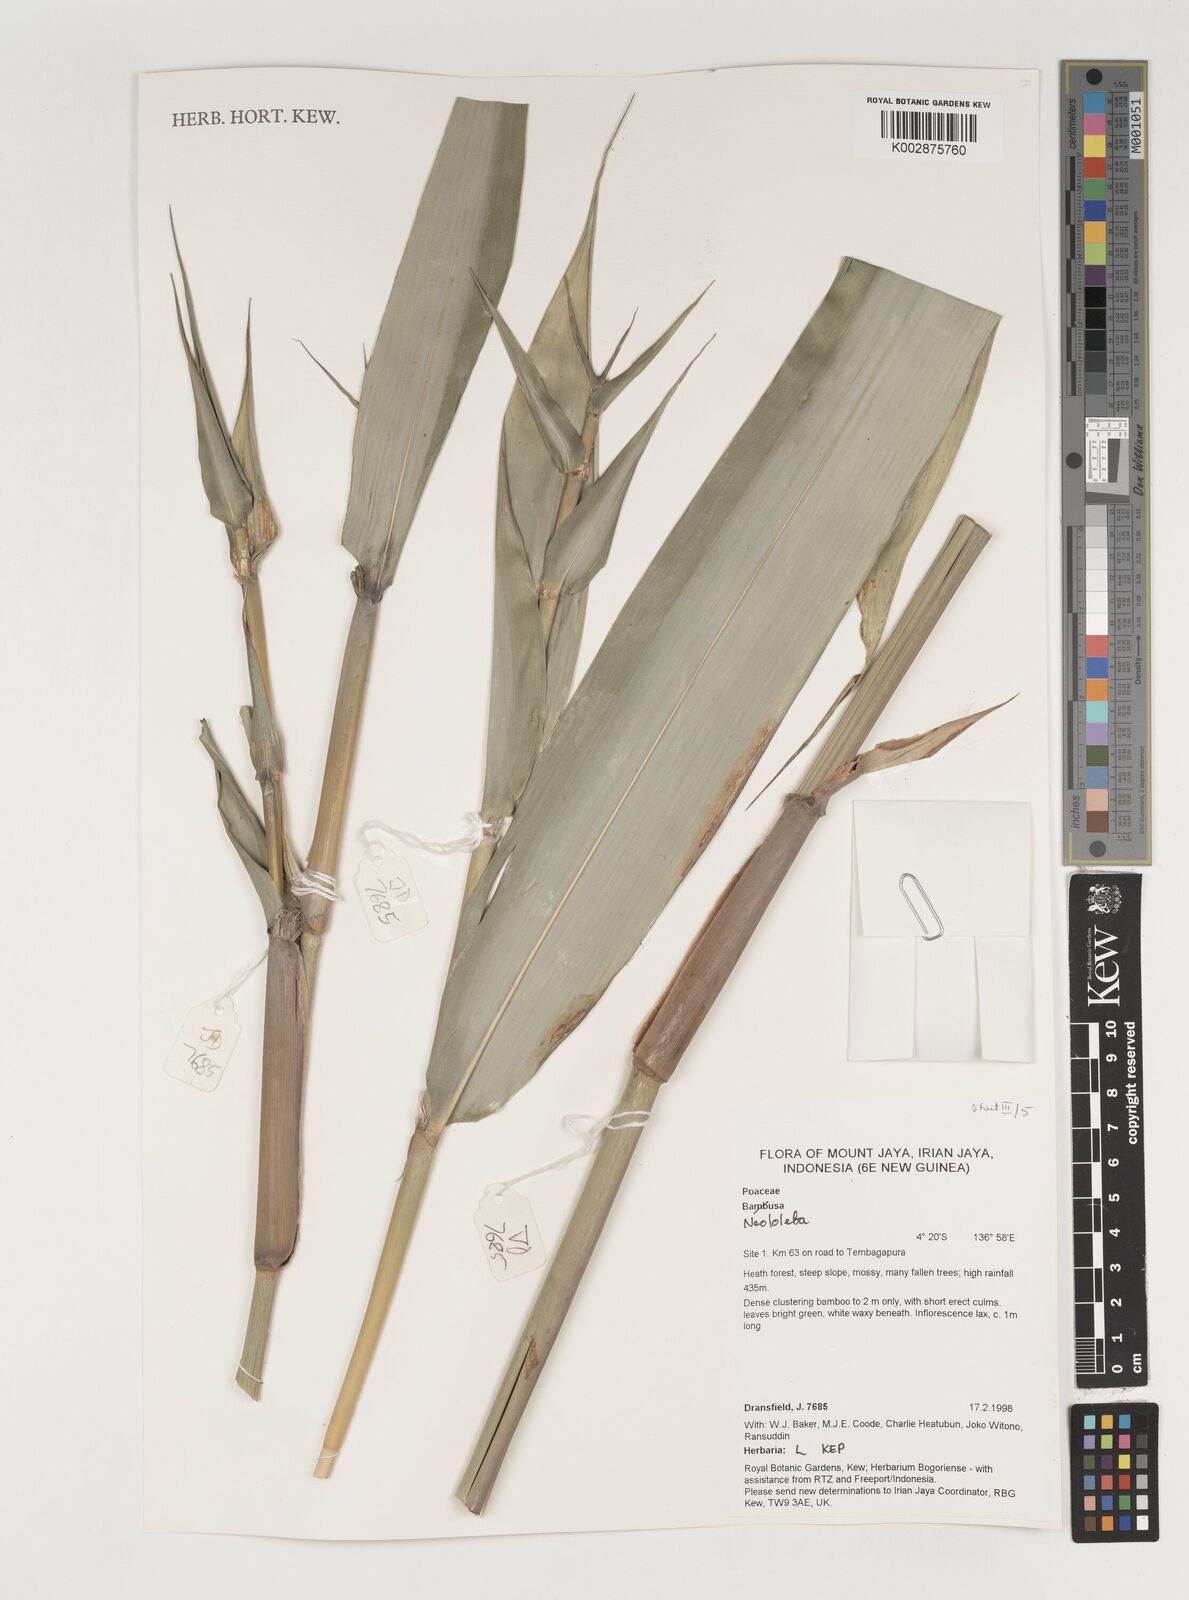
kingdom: Plantae
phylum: Tracheophyta
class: Liliopsida
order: Poales
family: Poaceae
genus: Neololeba
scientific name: Neololeba
